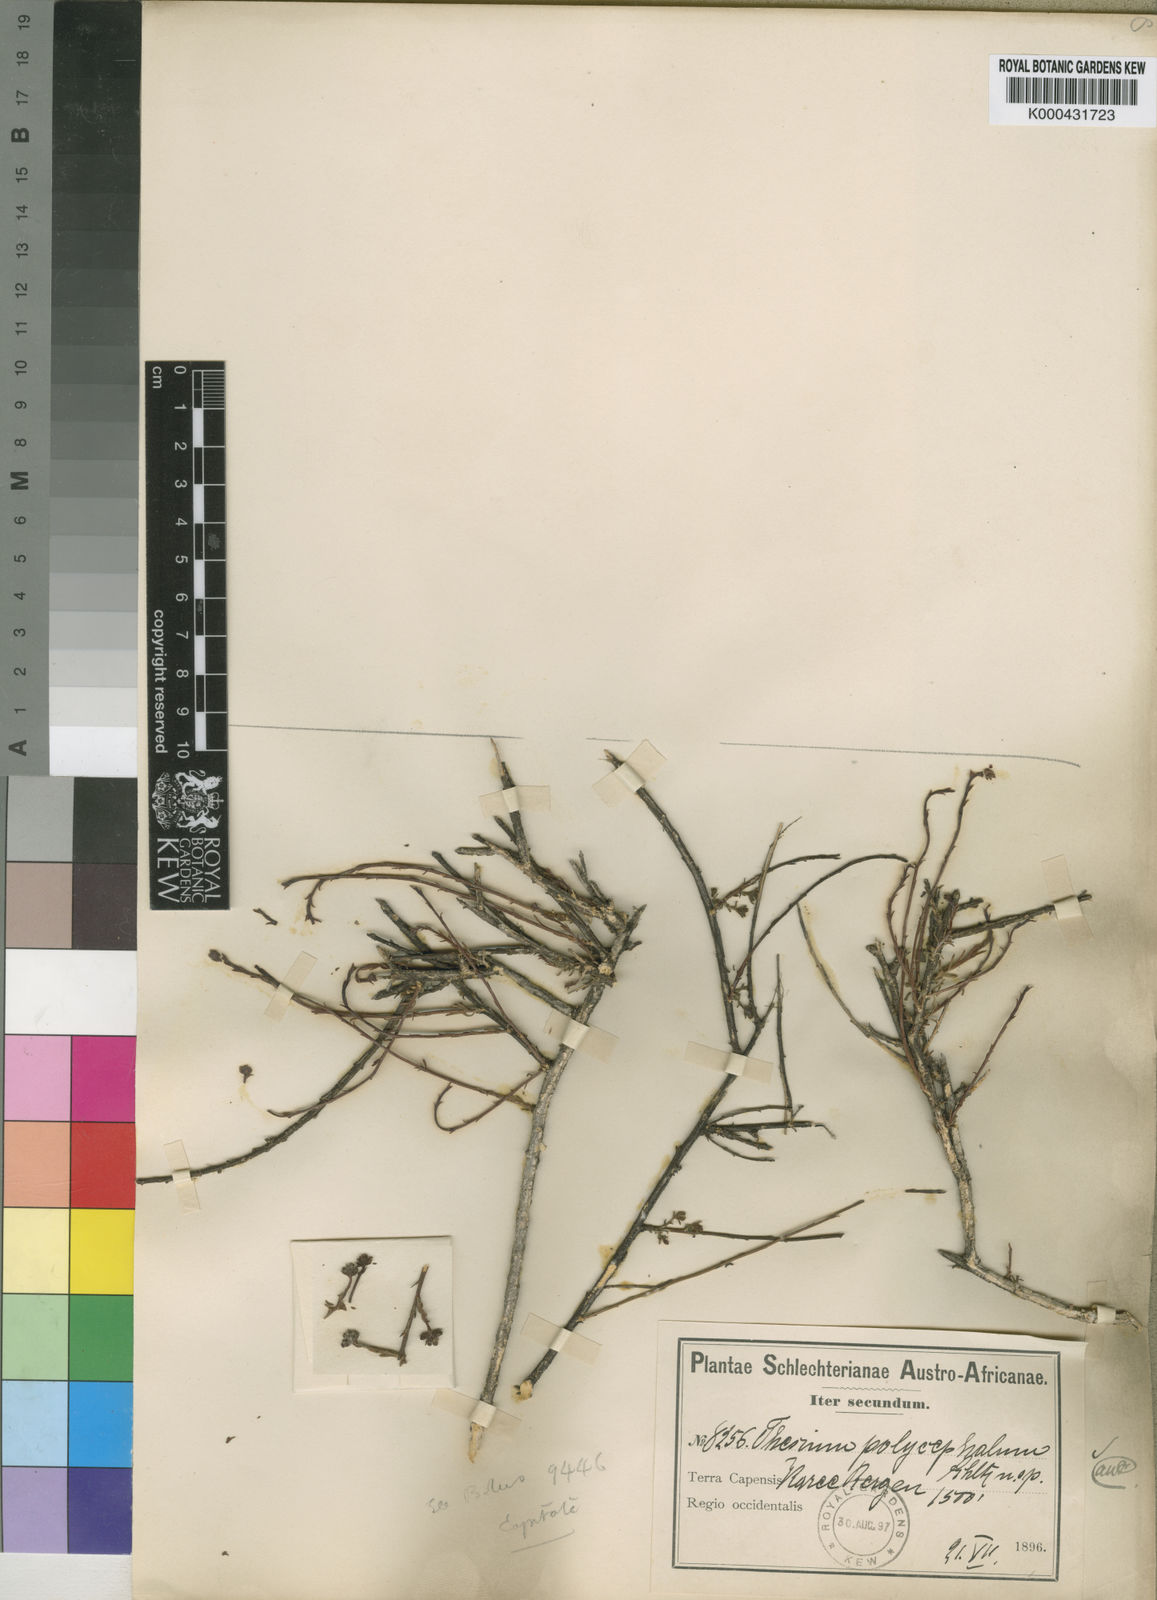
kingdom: Plantae
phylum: Tracheophyta
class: Magnoliopsida
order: Santalales
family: Thesiaceae
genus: Thesium
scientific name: Thesium polycephalum
